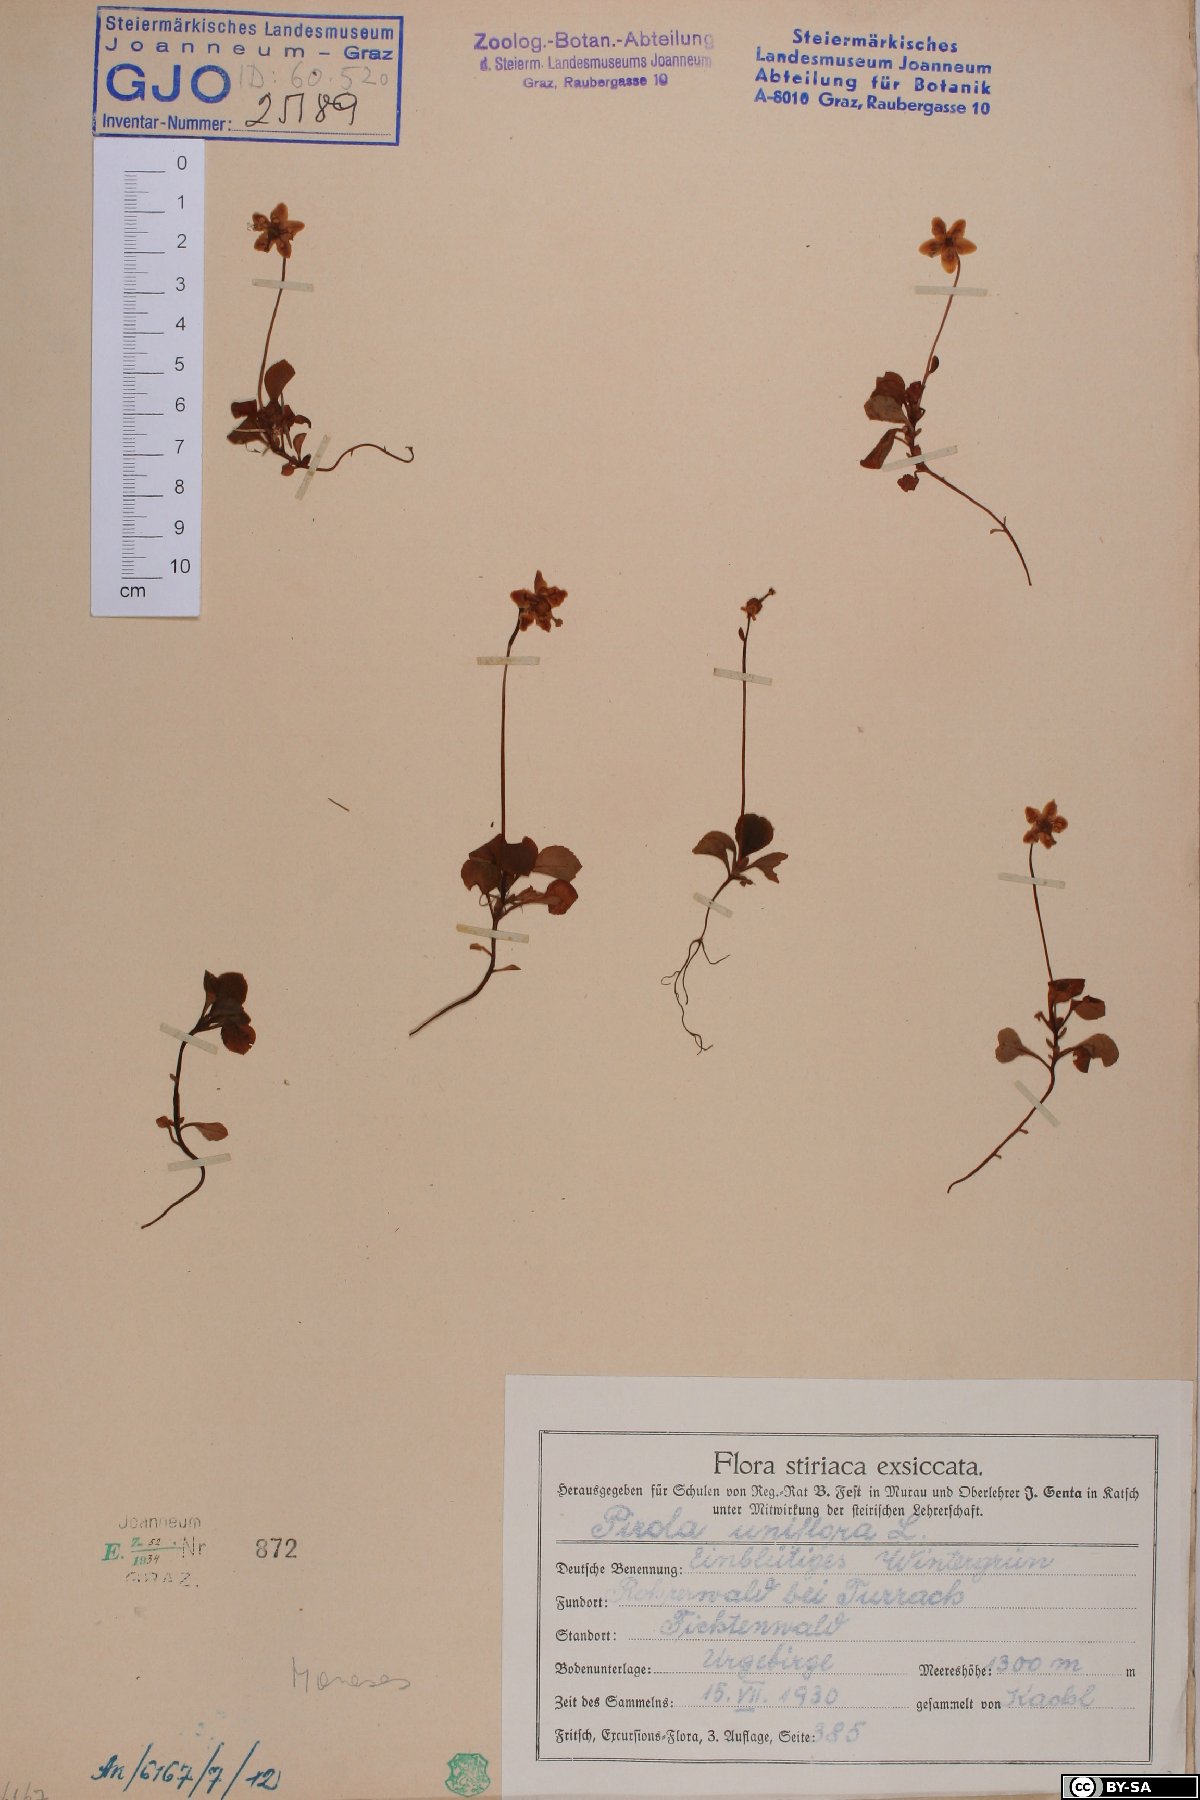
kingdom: Plantae
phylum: Tracheophyta
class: Magnoliopsida
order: Ericales
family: Ericaceae
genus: Moneses
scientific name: Moneses uniflora
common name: One-flowered wintergreen
